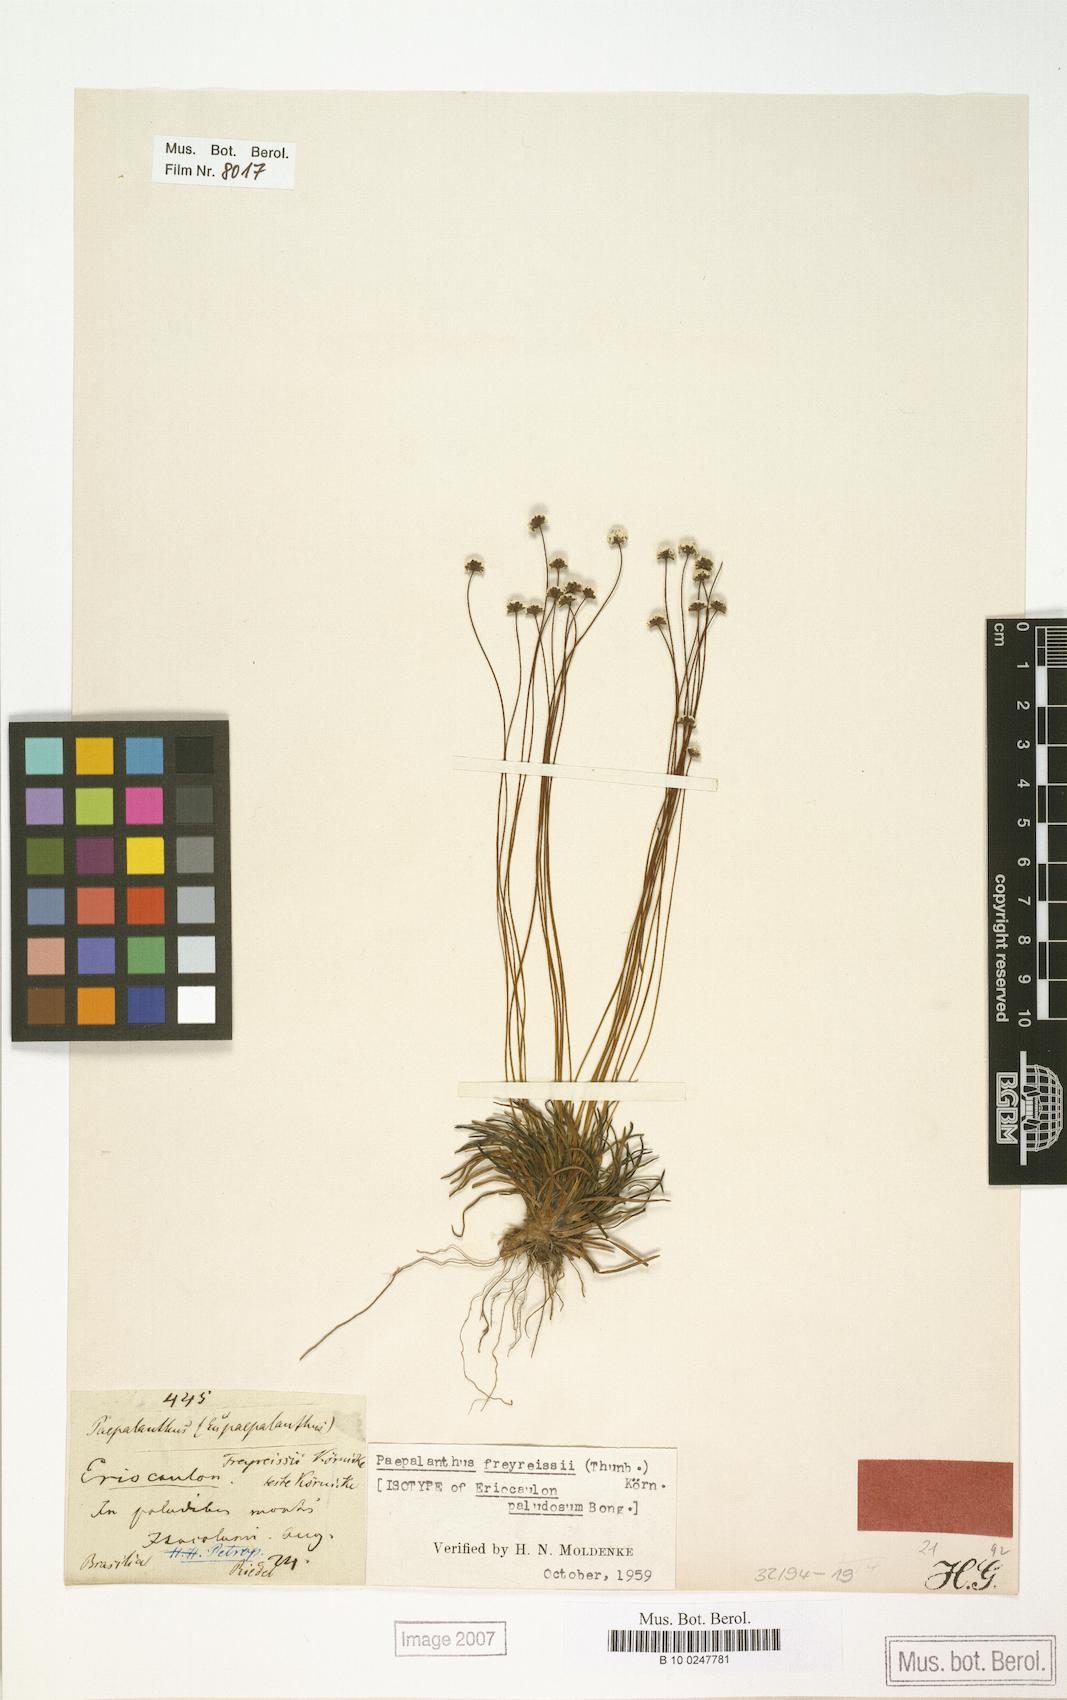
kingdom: Plantae
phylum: Tracheophyta
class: Liliopsida
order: Poales
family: Eriocaulaceae
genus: Paepalanthus
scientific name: Paepalanthus freyreissii
